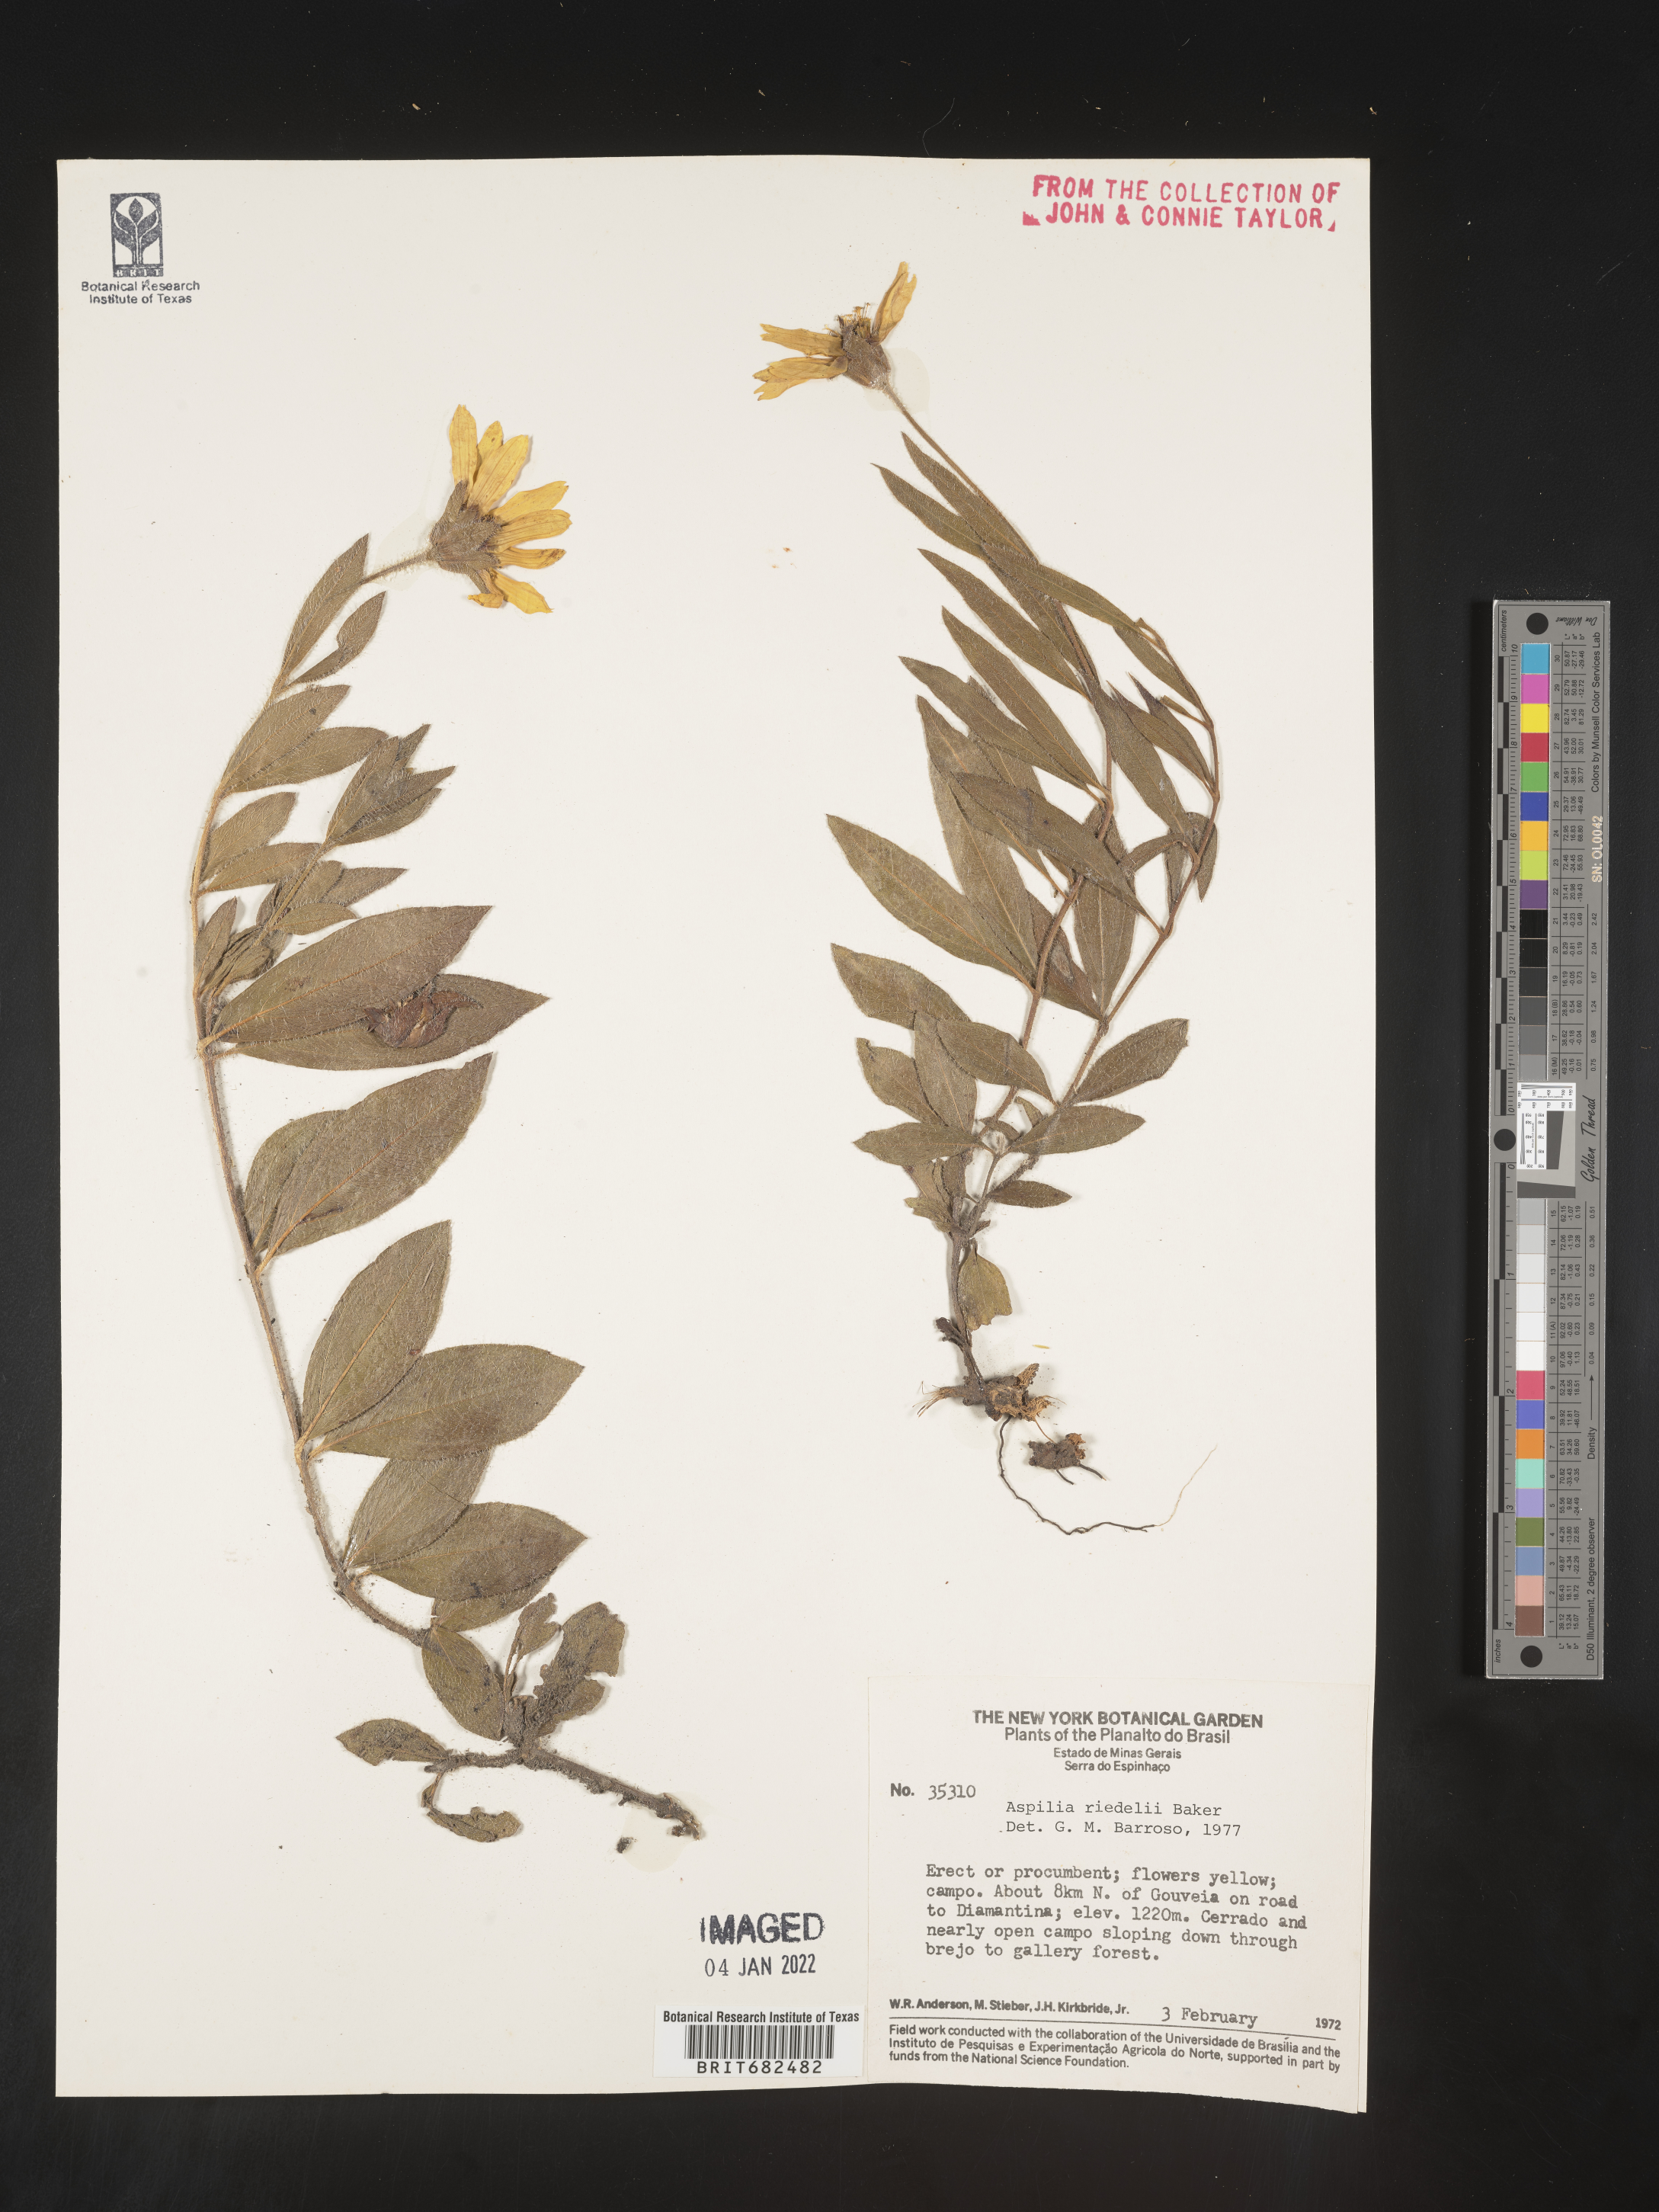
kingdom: Plantae
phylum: Tracheophyta
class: Magnoliopsida
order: Asterales
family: Asteraceae
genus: Aspilia
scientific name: Aspilia
